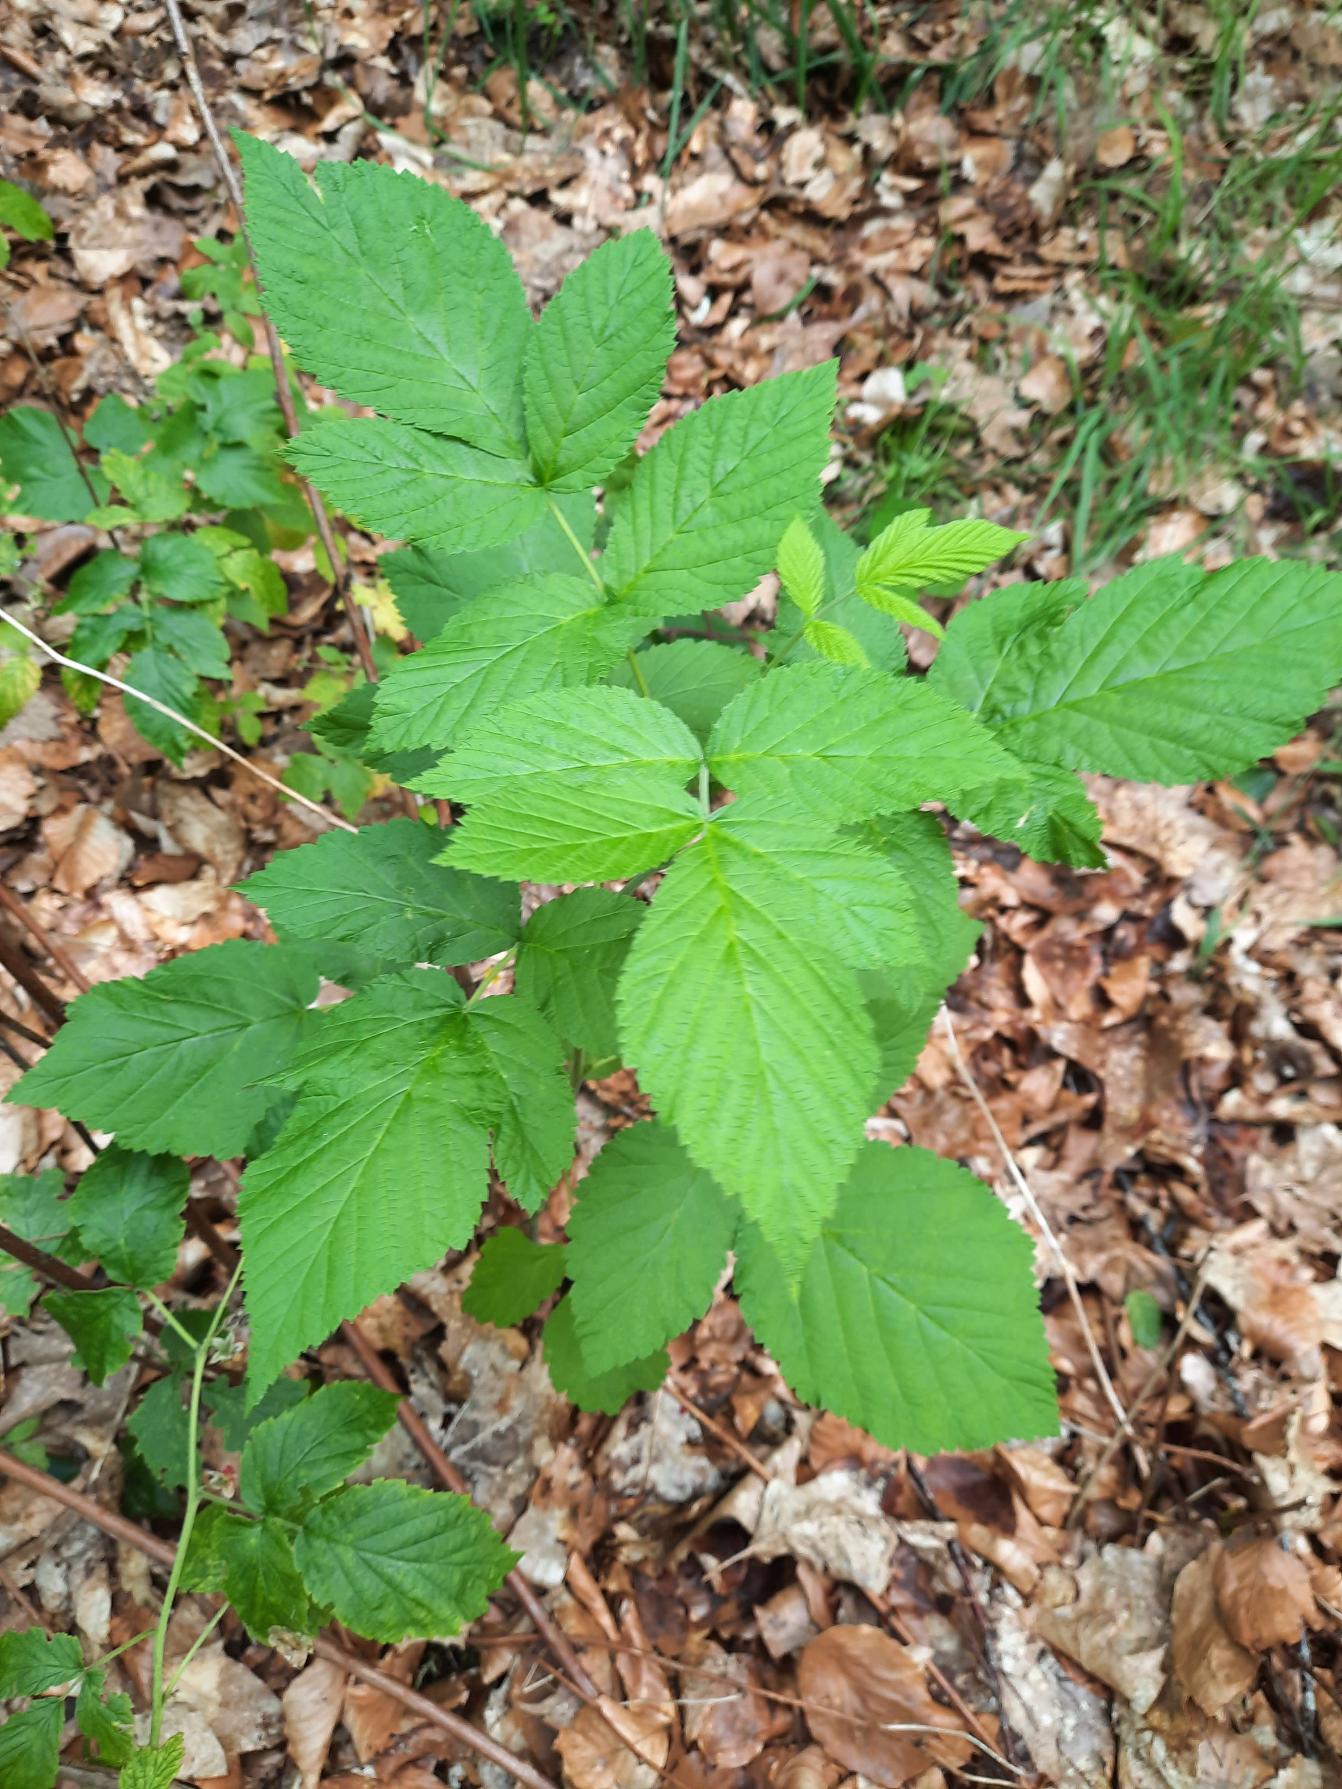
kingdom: Plantae
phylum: Tracheophyta
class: Magnoliopsida
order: Rosales
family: Rosaceae
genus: Rubus
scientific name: Rubus idaeus
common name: Hindbær
